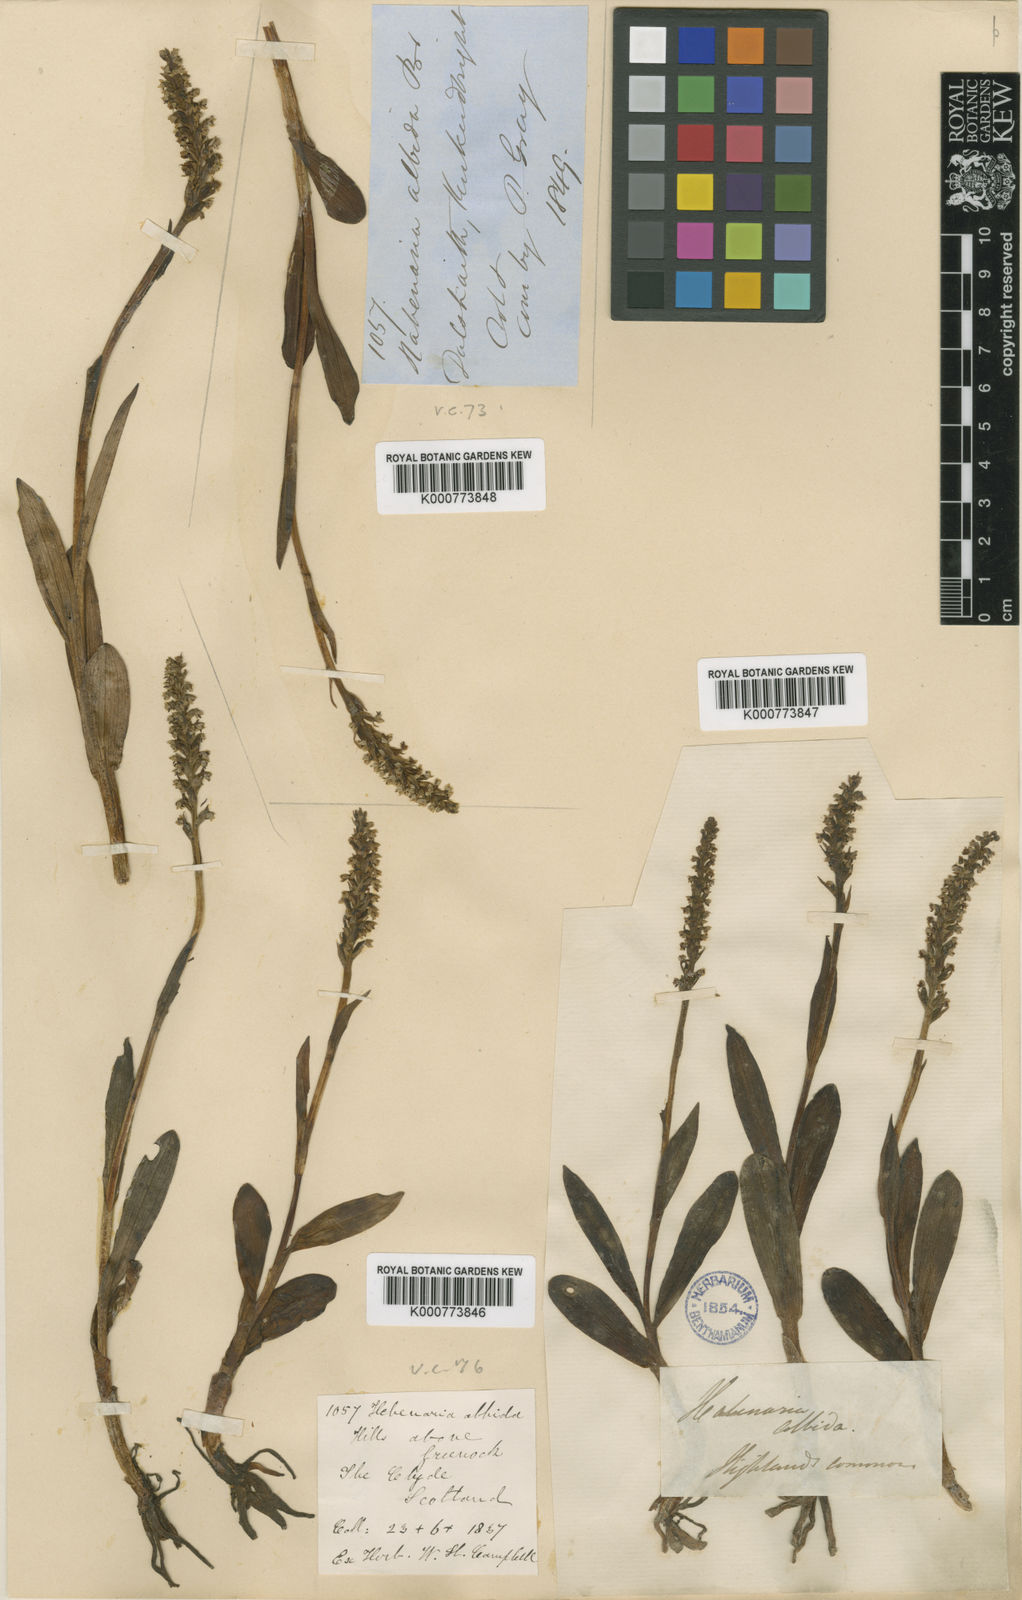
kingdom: Plantae
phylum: Tracheophyta
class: Liliopsida
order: Asparagales
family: Orchidaceae
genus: Pseudorchis
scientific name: Pseudorchis
